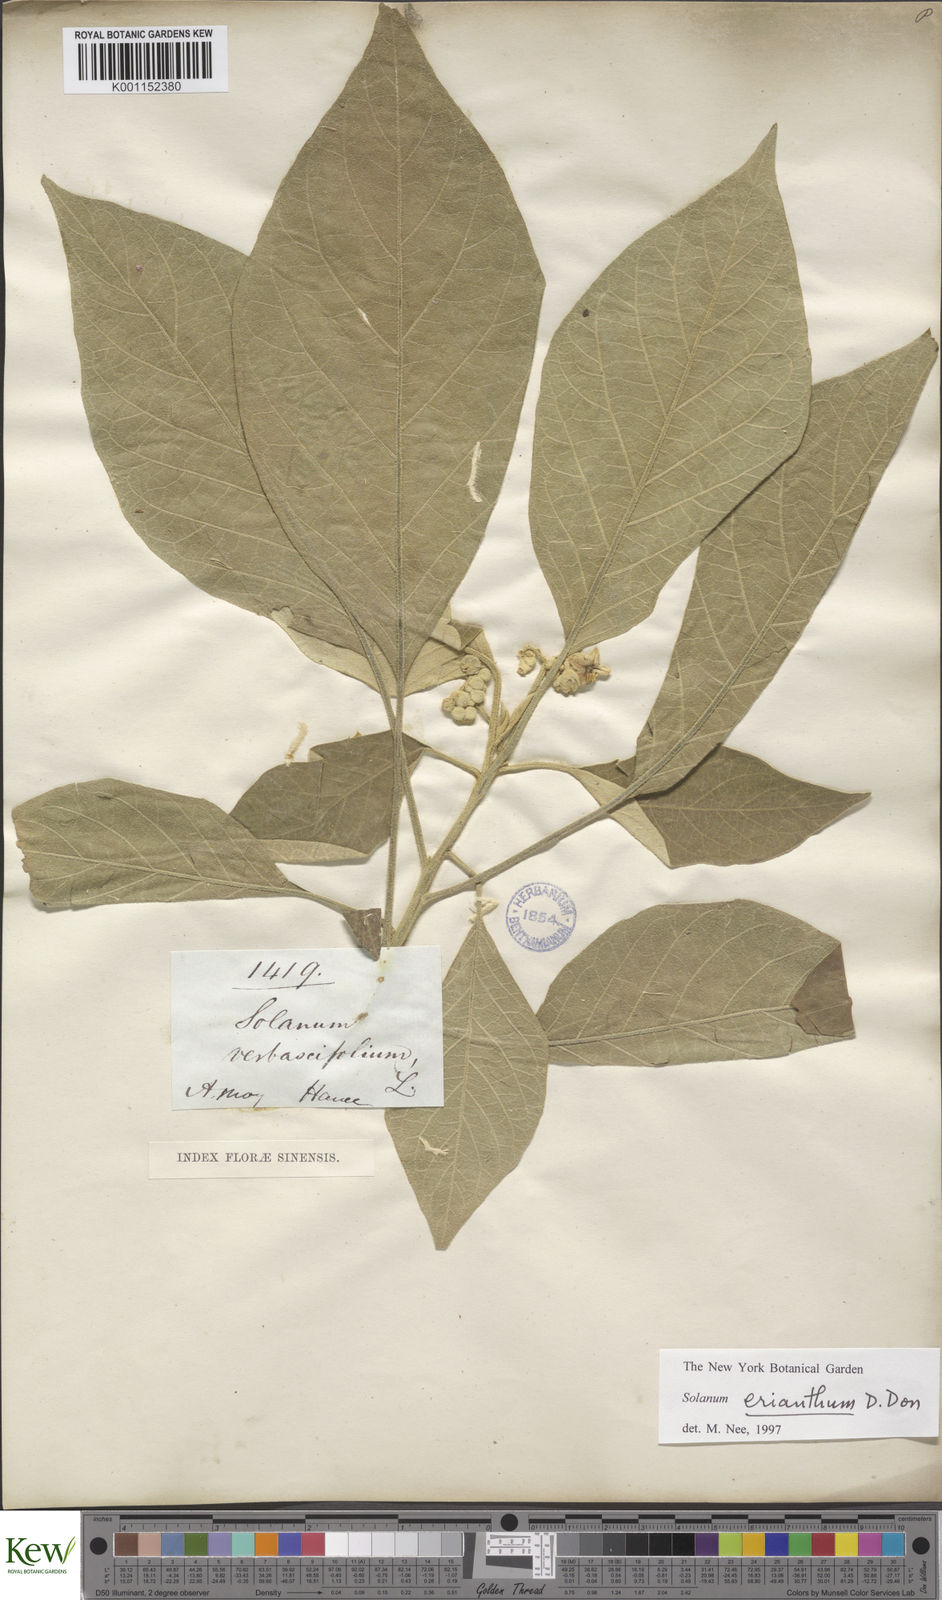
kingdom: Plantae
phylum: Tracheophyta
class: Magnoliopsida
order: Solanales
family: Solanaceae
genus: Solanum
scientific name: Solanum donianum
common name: Mullein nightshade
